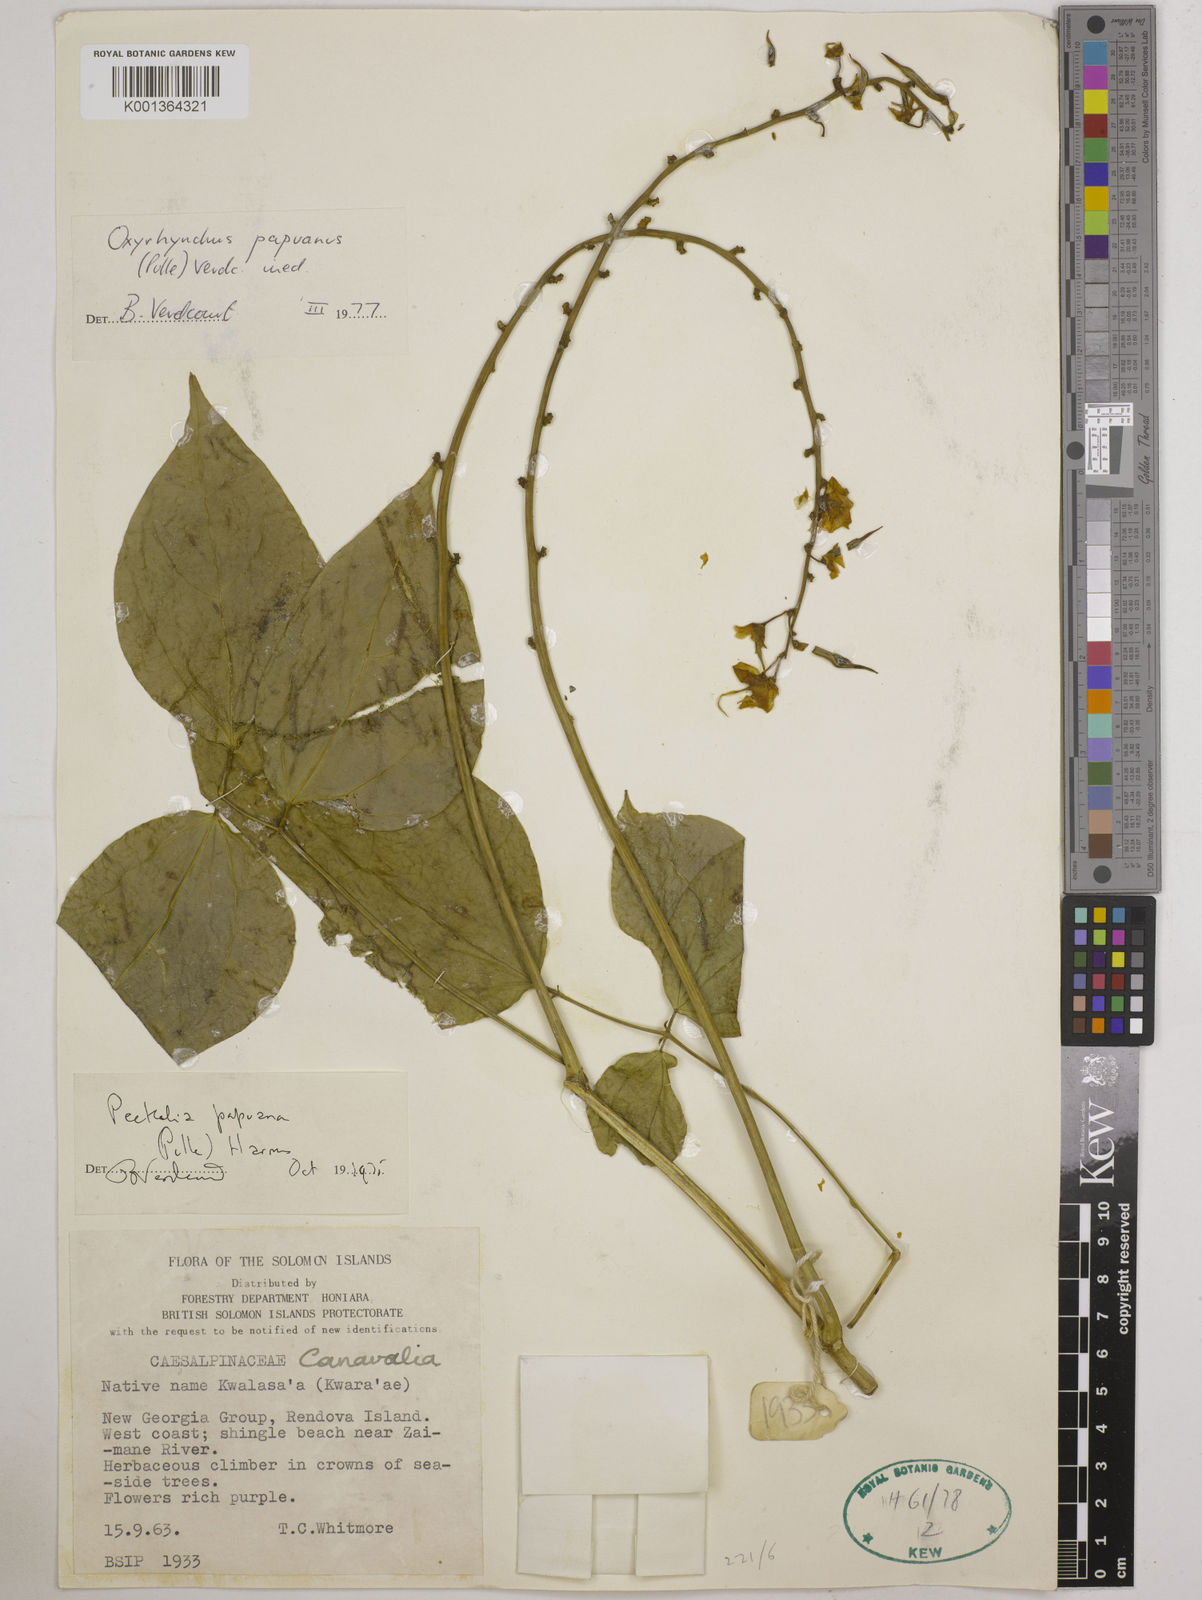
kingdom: Plantae
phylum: Tracheophyta
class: Magnoliopsida
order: Fabales
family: Fabaceae
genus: Oxyrhynchus
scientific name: Oxyrhynchus
